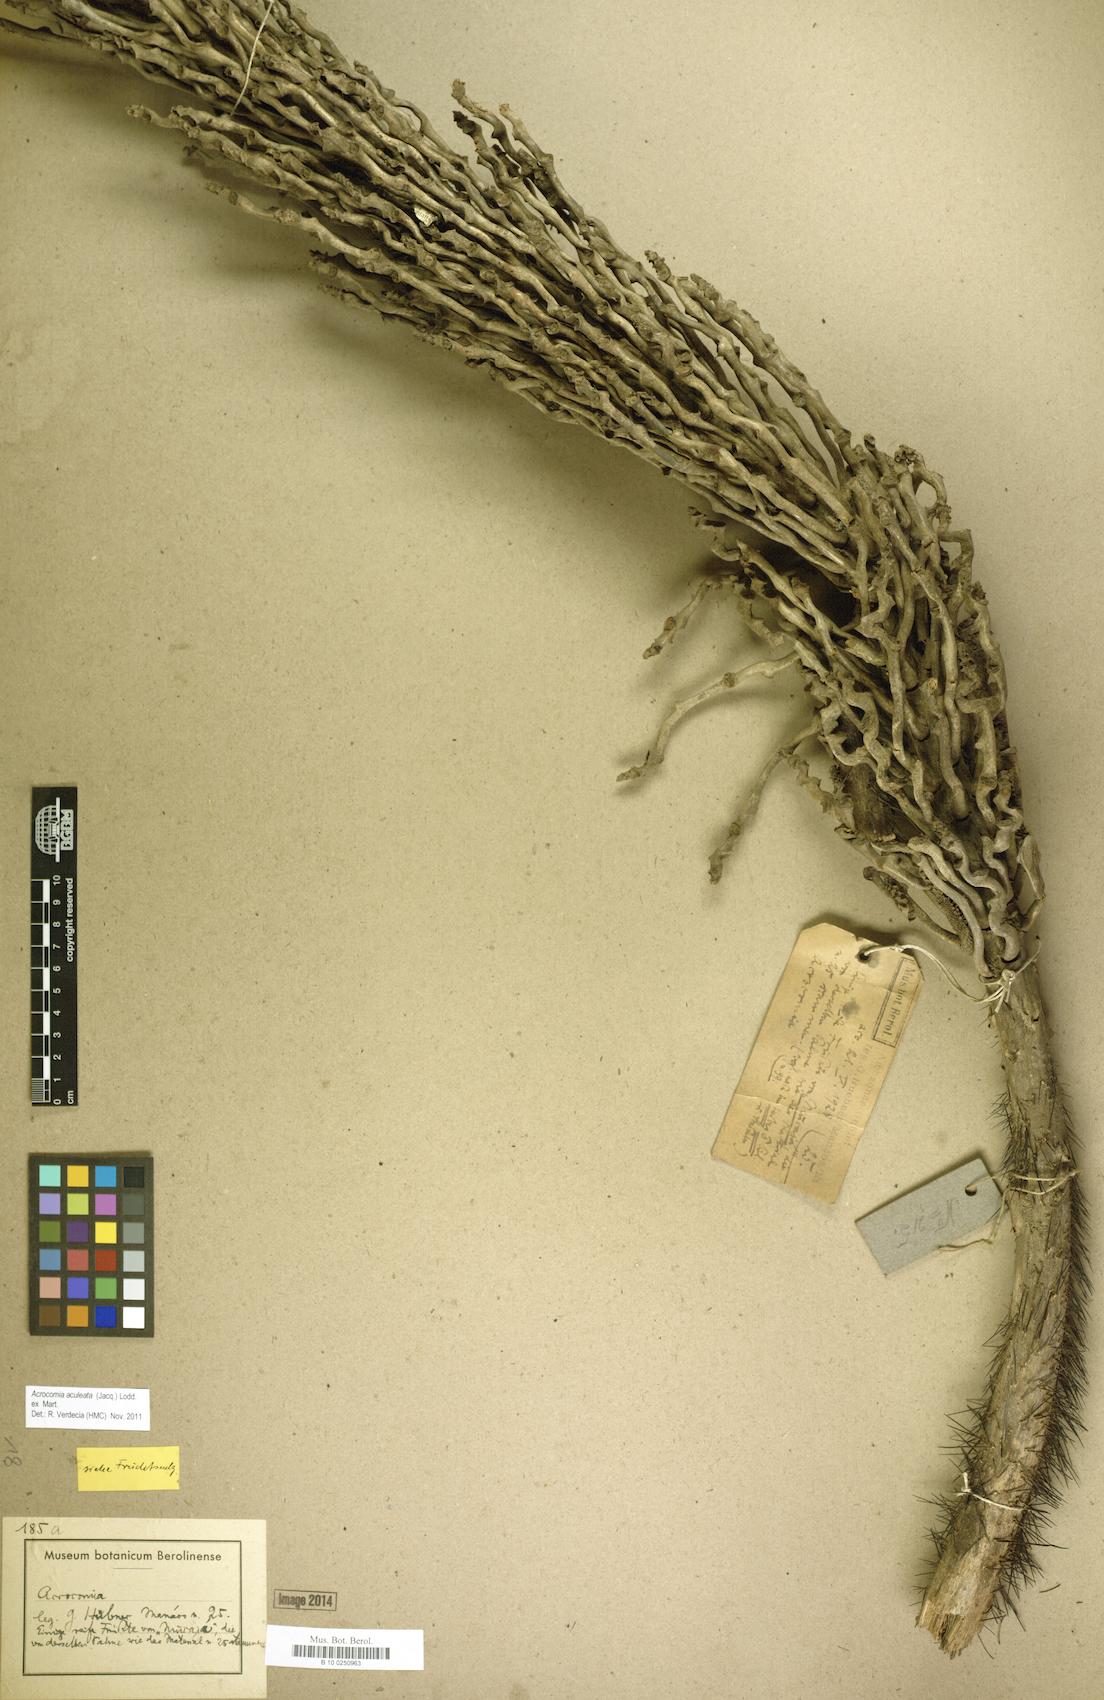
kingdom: Plantae
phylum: Tracheophyta
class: Liliopsida
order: Arecales
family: Arecaceae
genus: Acrocomia
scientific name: Acrocomia aculeata
